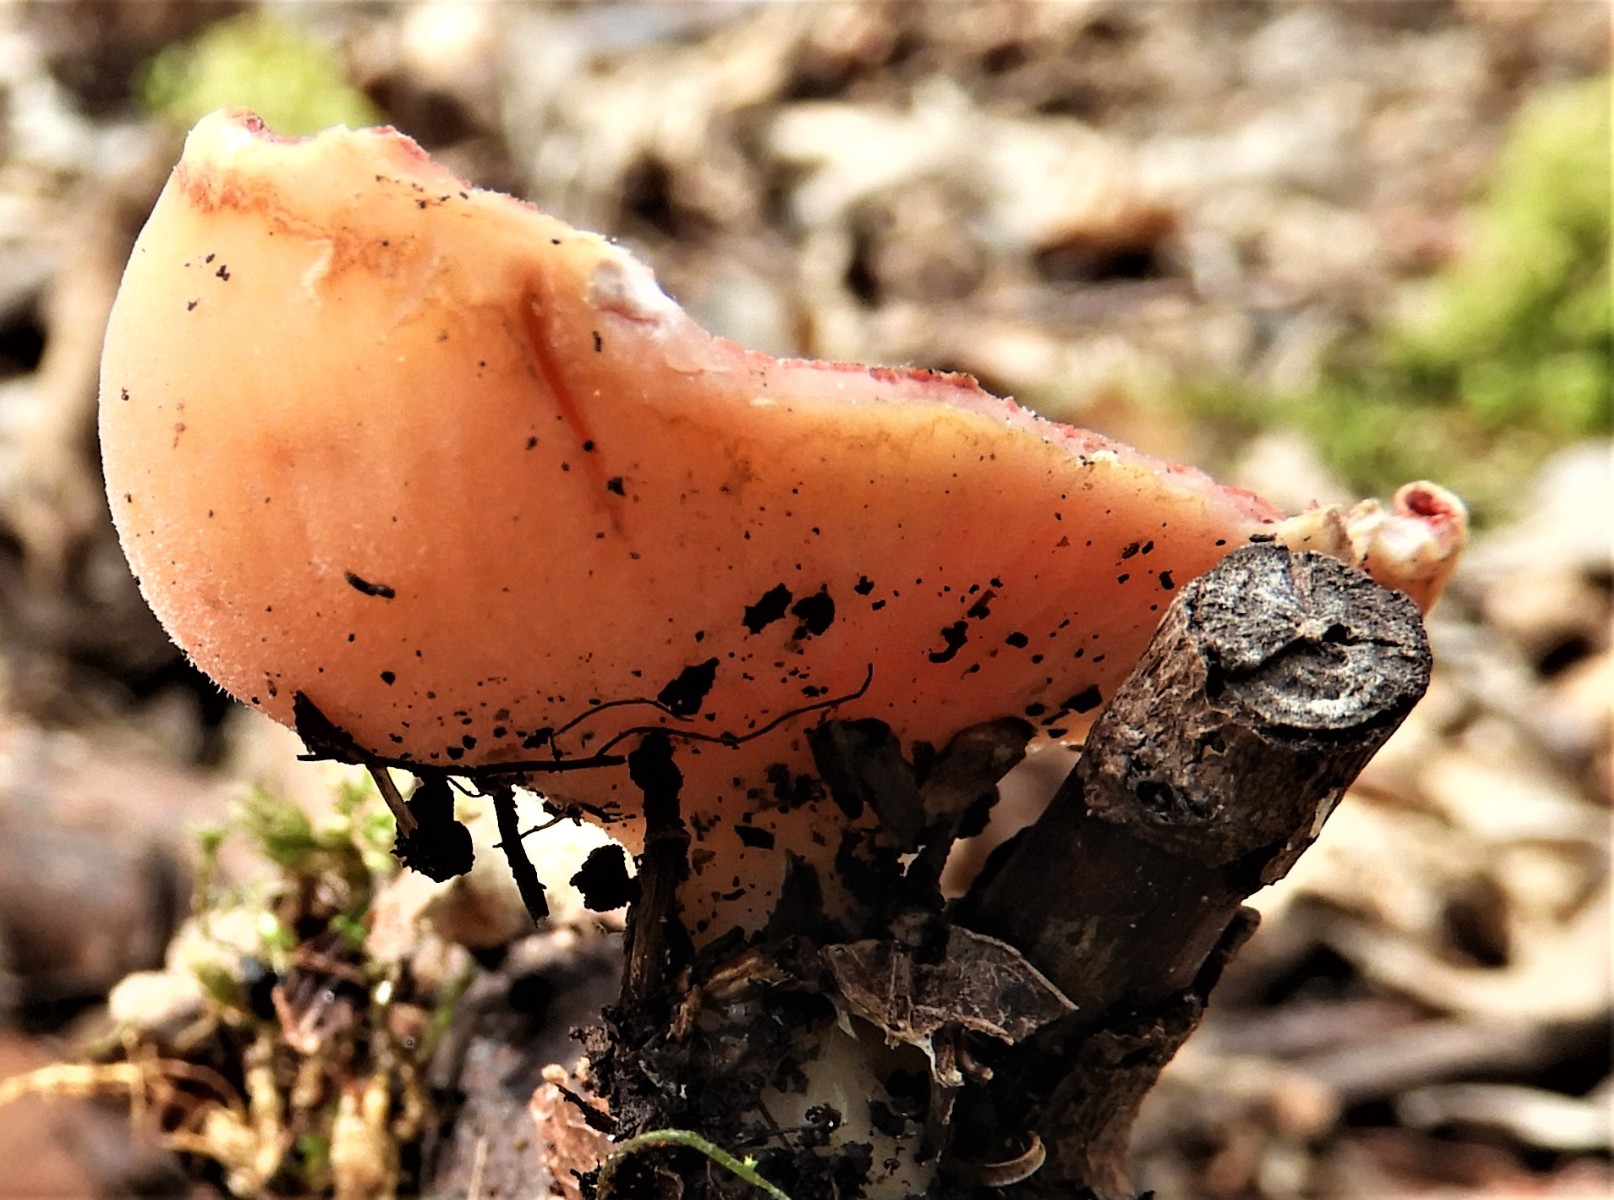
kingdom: Fungi
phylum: Ascomycota
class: Pezizomycetes
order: Pezizales
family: Sarcoscyphaceae
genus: Sarcoscypha
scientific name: Sarcoscypha austriaca
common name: krølhåret pragtbæger
